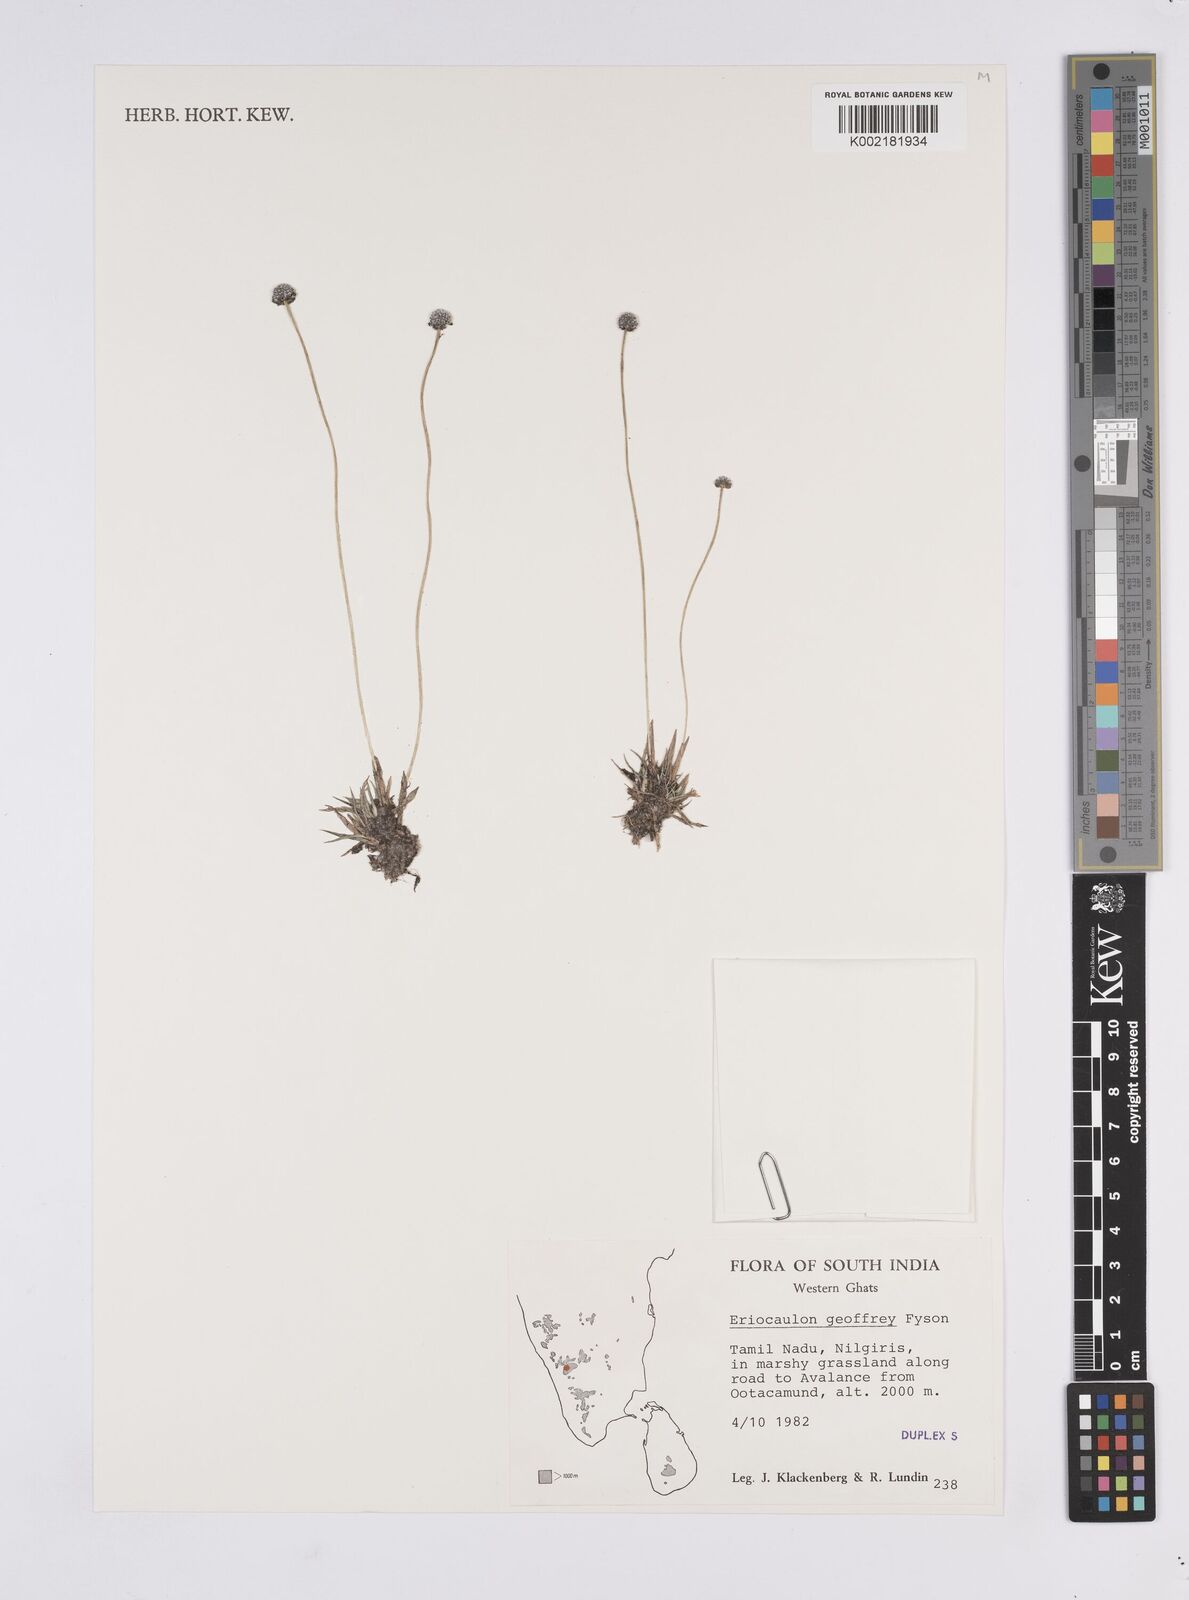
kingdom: Plantae
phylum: Tracheophyta
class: Liliopsida
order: Poales
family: Eriocaulaceae
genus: Eriocaulon
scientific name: Eriocaulon pectinatum
